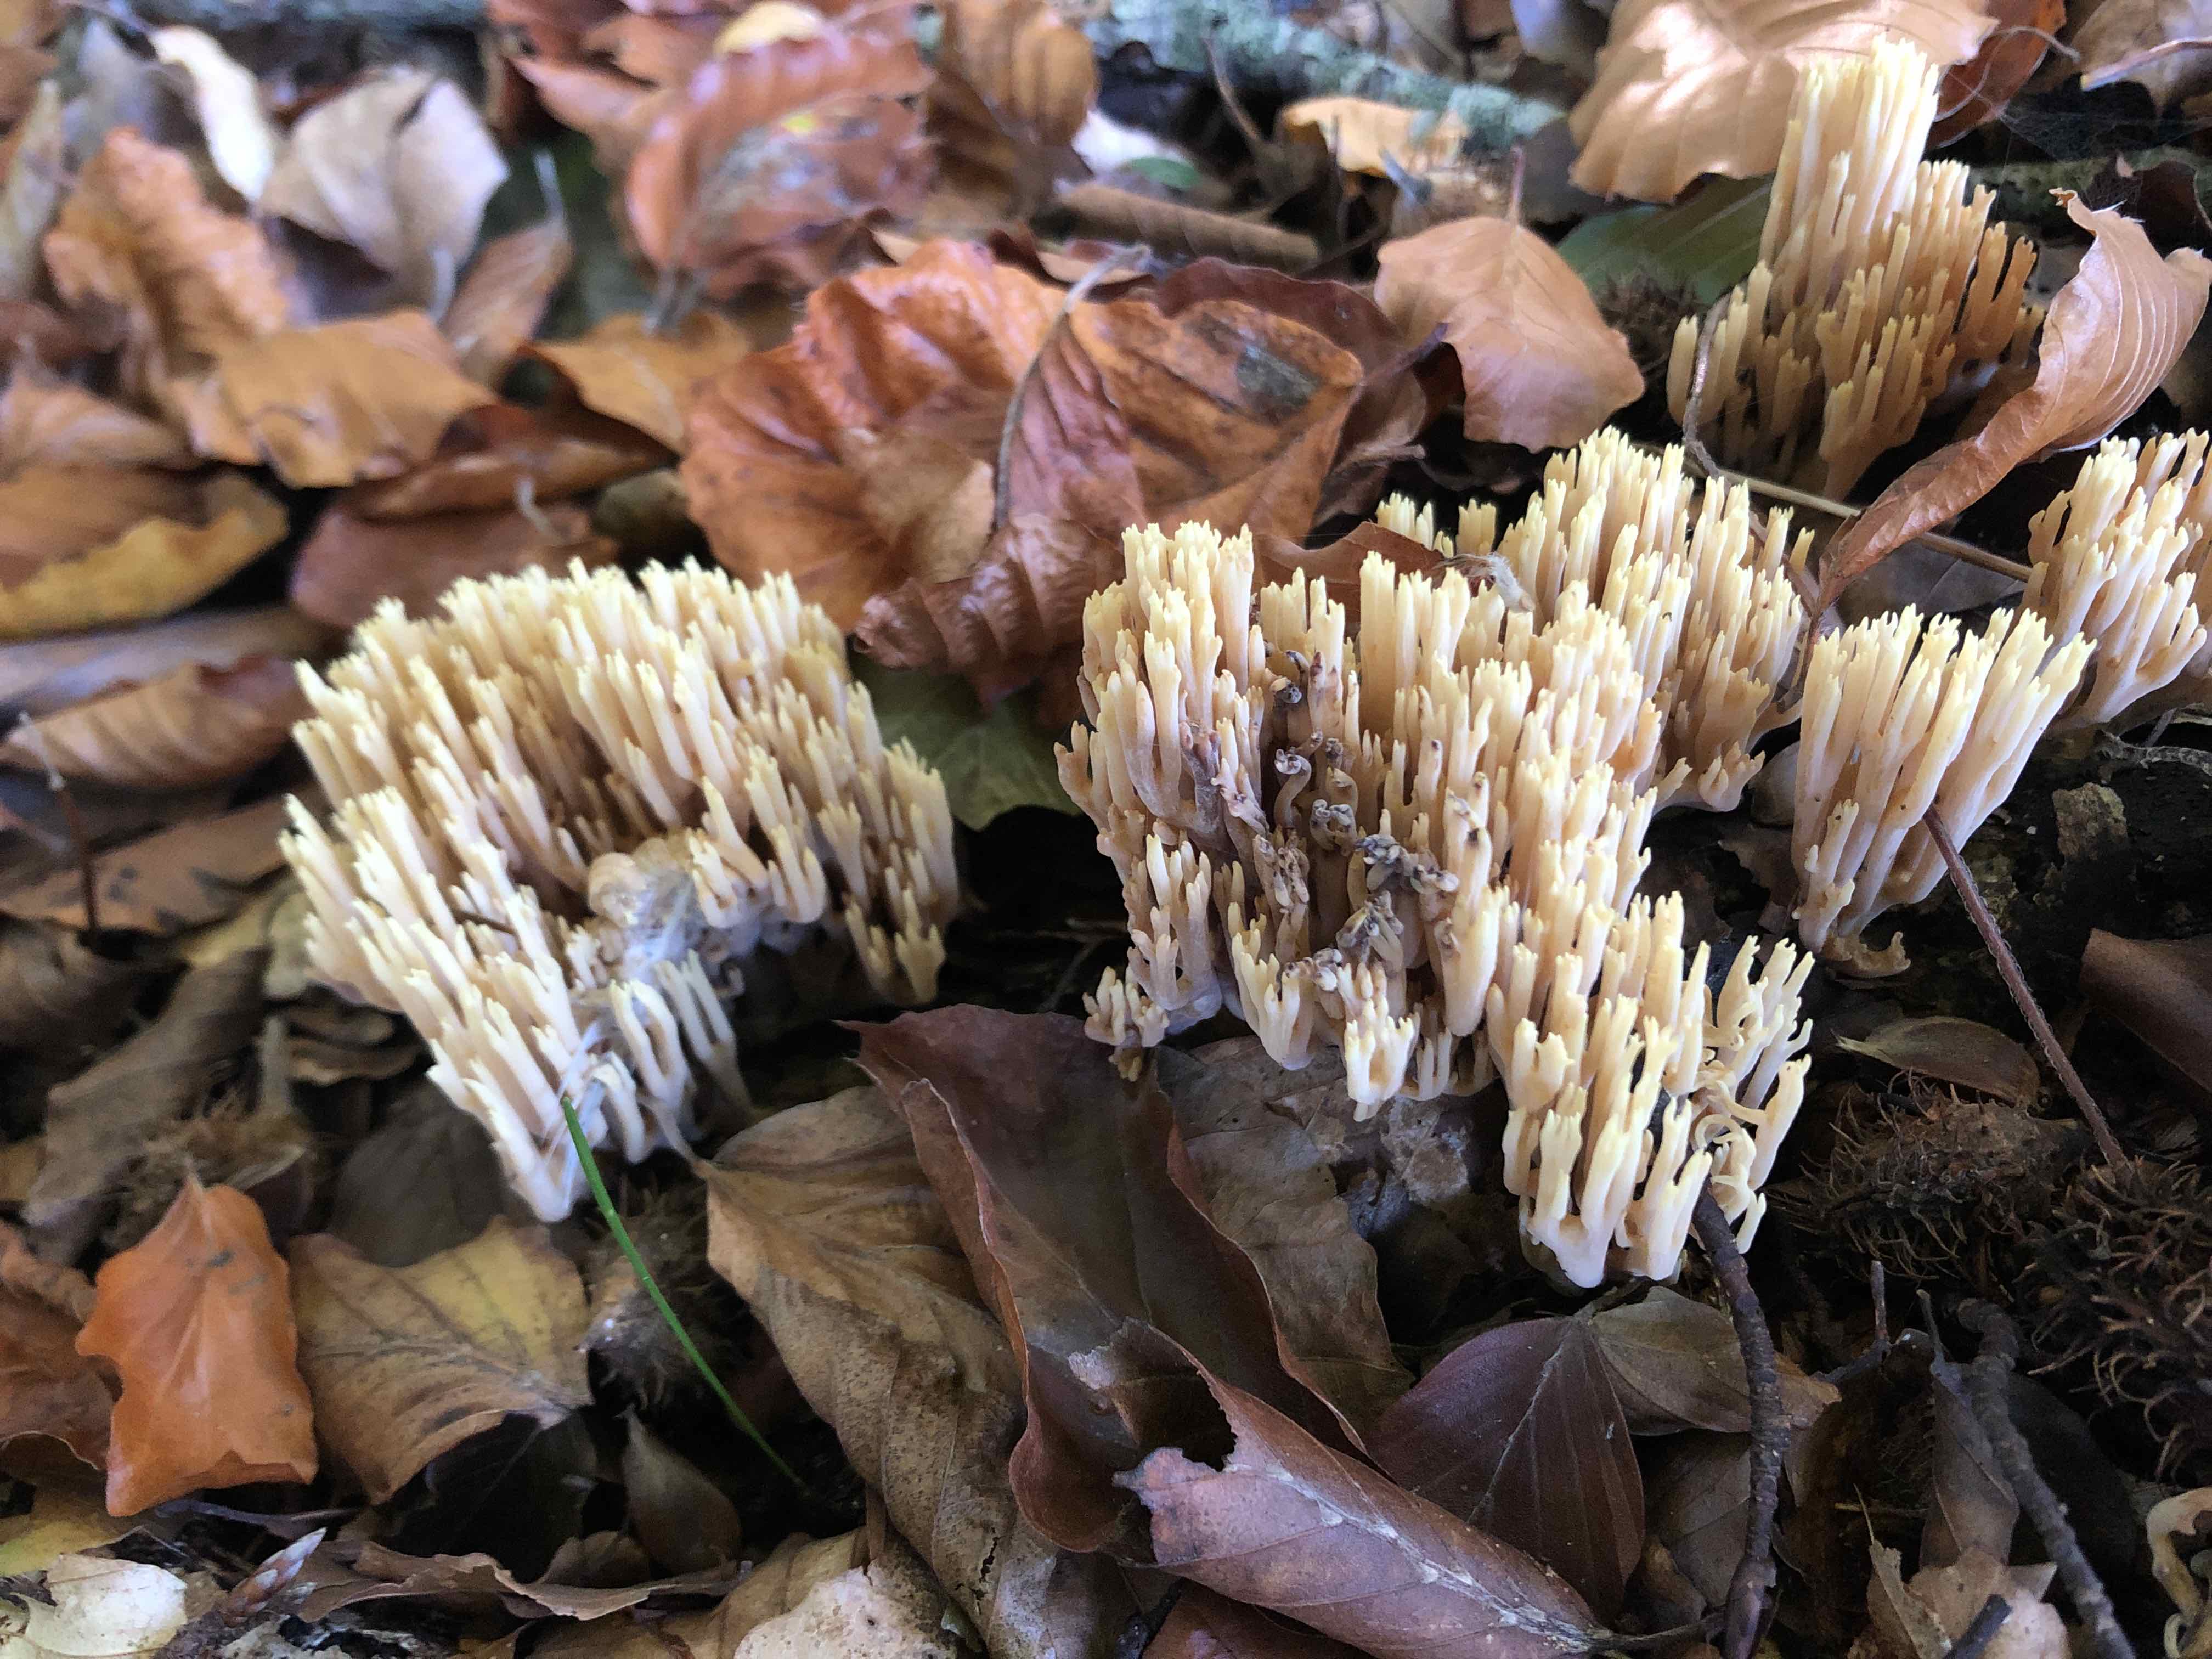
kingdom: Fungi
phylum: Basidiomycota
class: Agaricomycetes
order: Gomphales
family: Gomphaceae
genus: Ramaria
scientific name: Ramaria stricta
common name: rank koralsvamp
